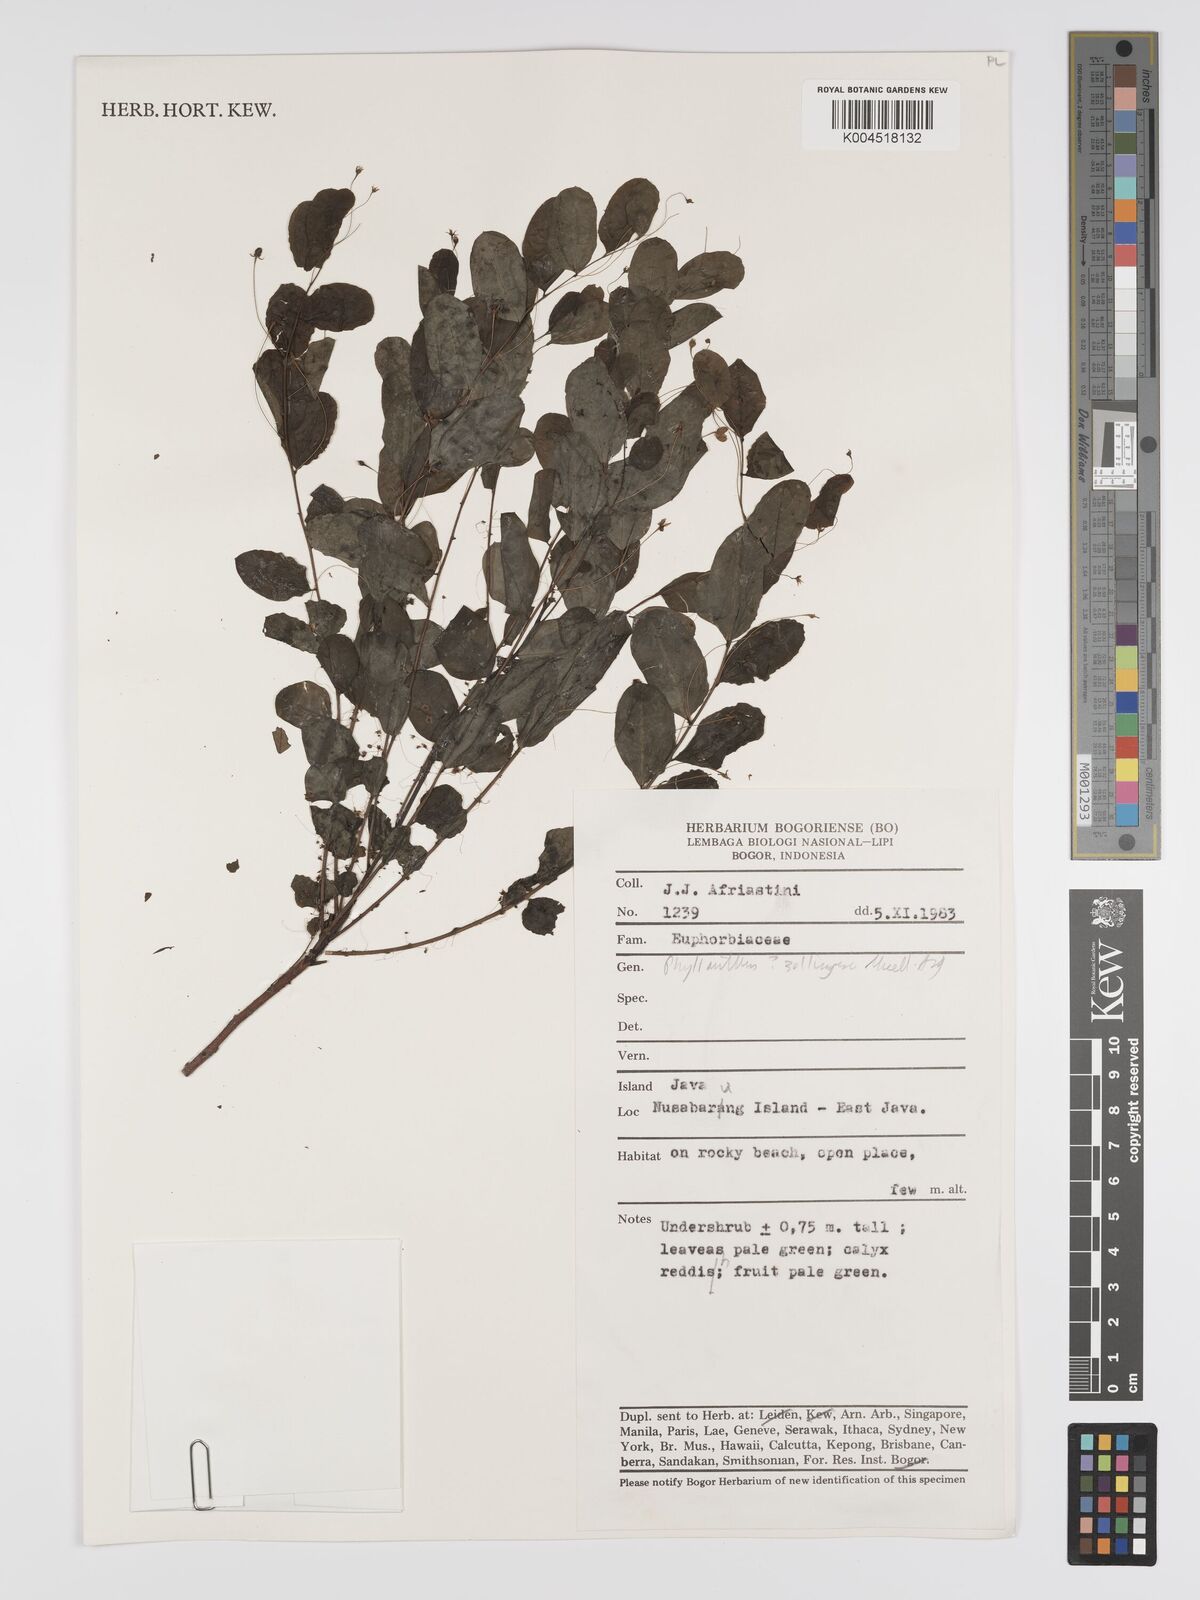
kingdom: Plantae
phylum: Tracheophyta
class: Magnoliopsida
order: Malpighiales
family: Phyllanthaceae
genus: Phyllanthus
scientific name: Phyllanthus
